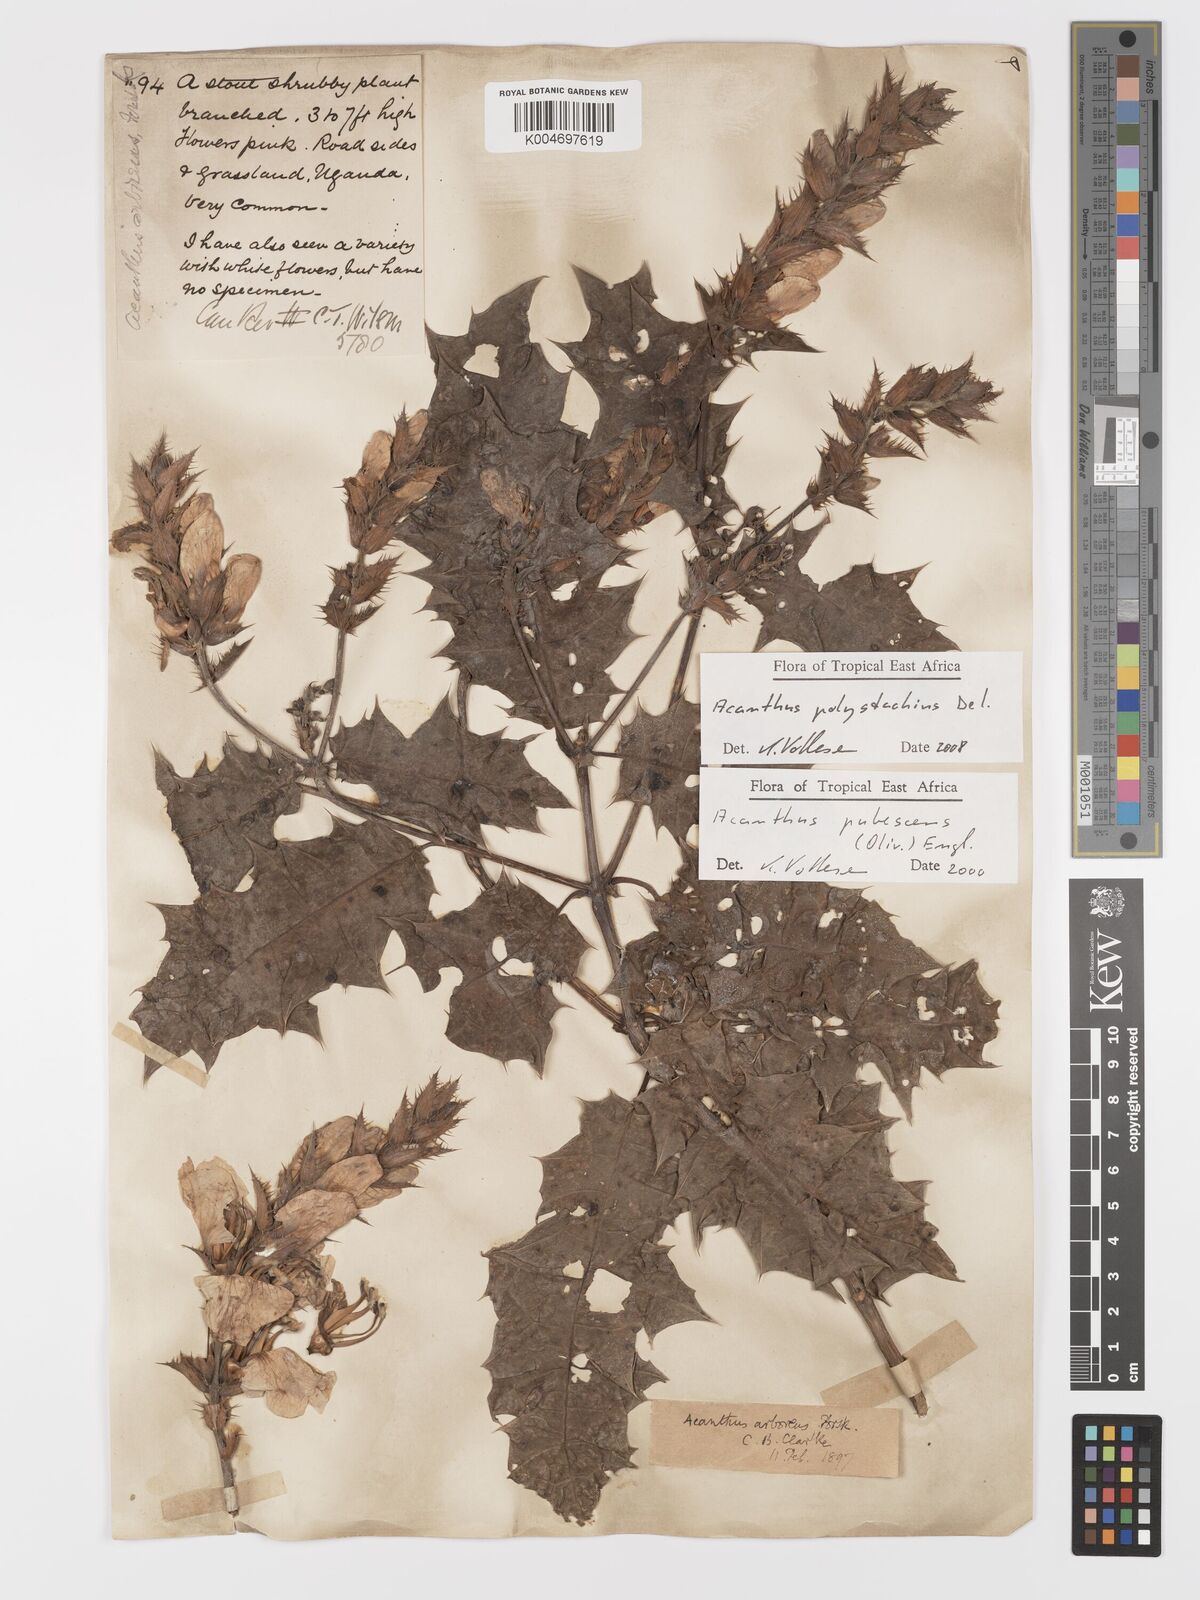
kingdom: Plantae
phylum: Tracheophyta
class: Magnoliopsida
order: Lamiales
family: Acanthaceae
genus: Acanthus
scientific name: Acanthus polystachyus
